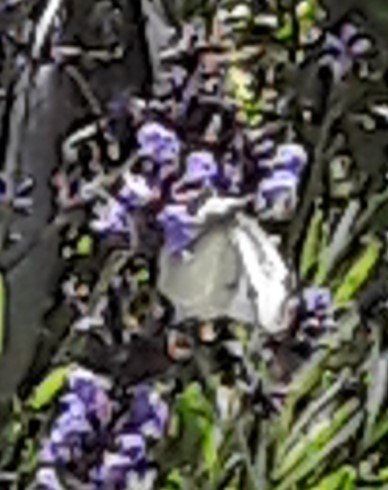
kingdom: Animalia
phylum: Arthropoda
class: Insecta
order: Lepidoptera
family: Pieridae
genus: Pieris
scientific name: Pieris rapae
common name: Cabbage White
